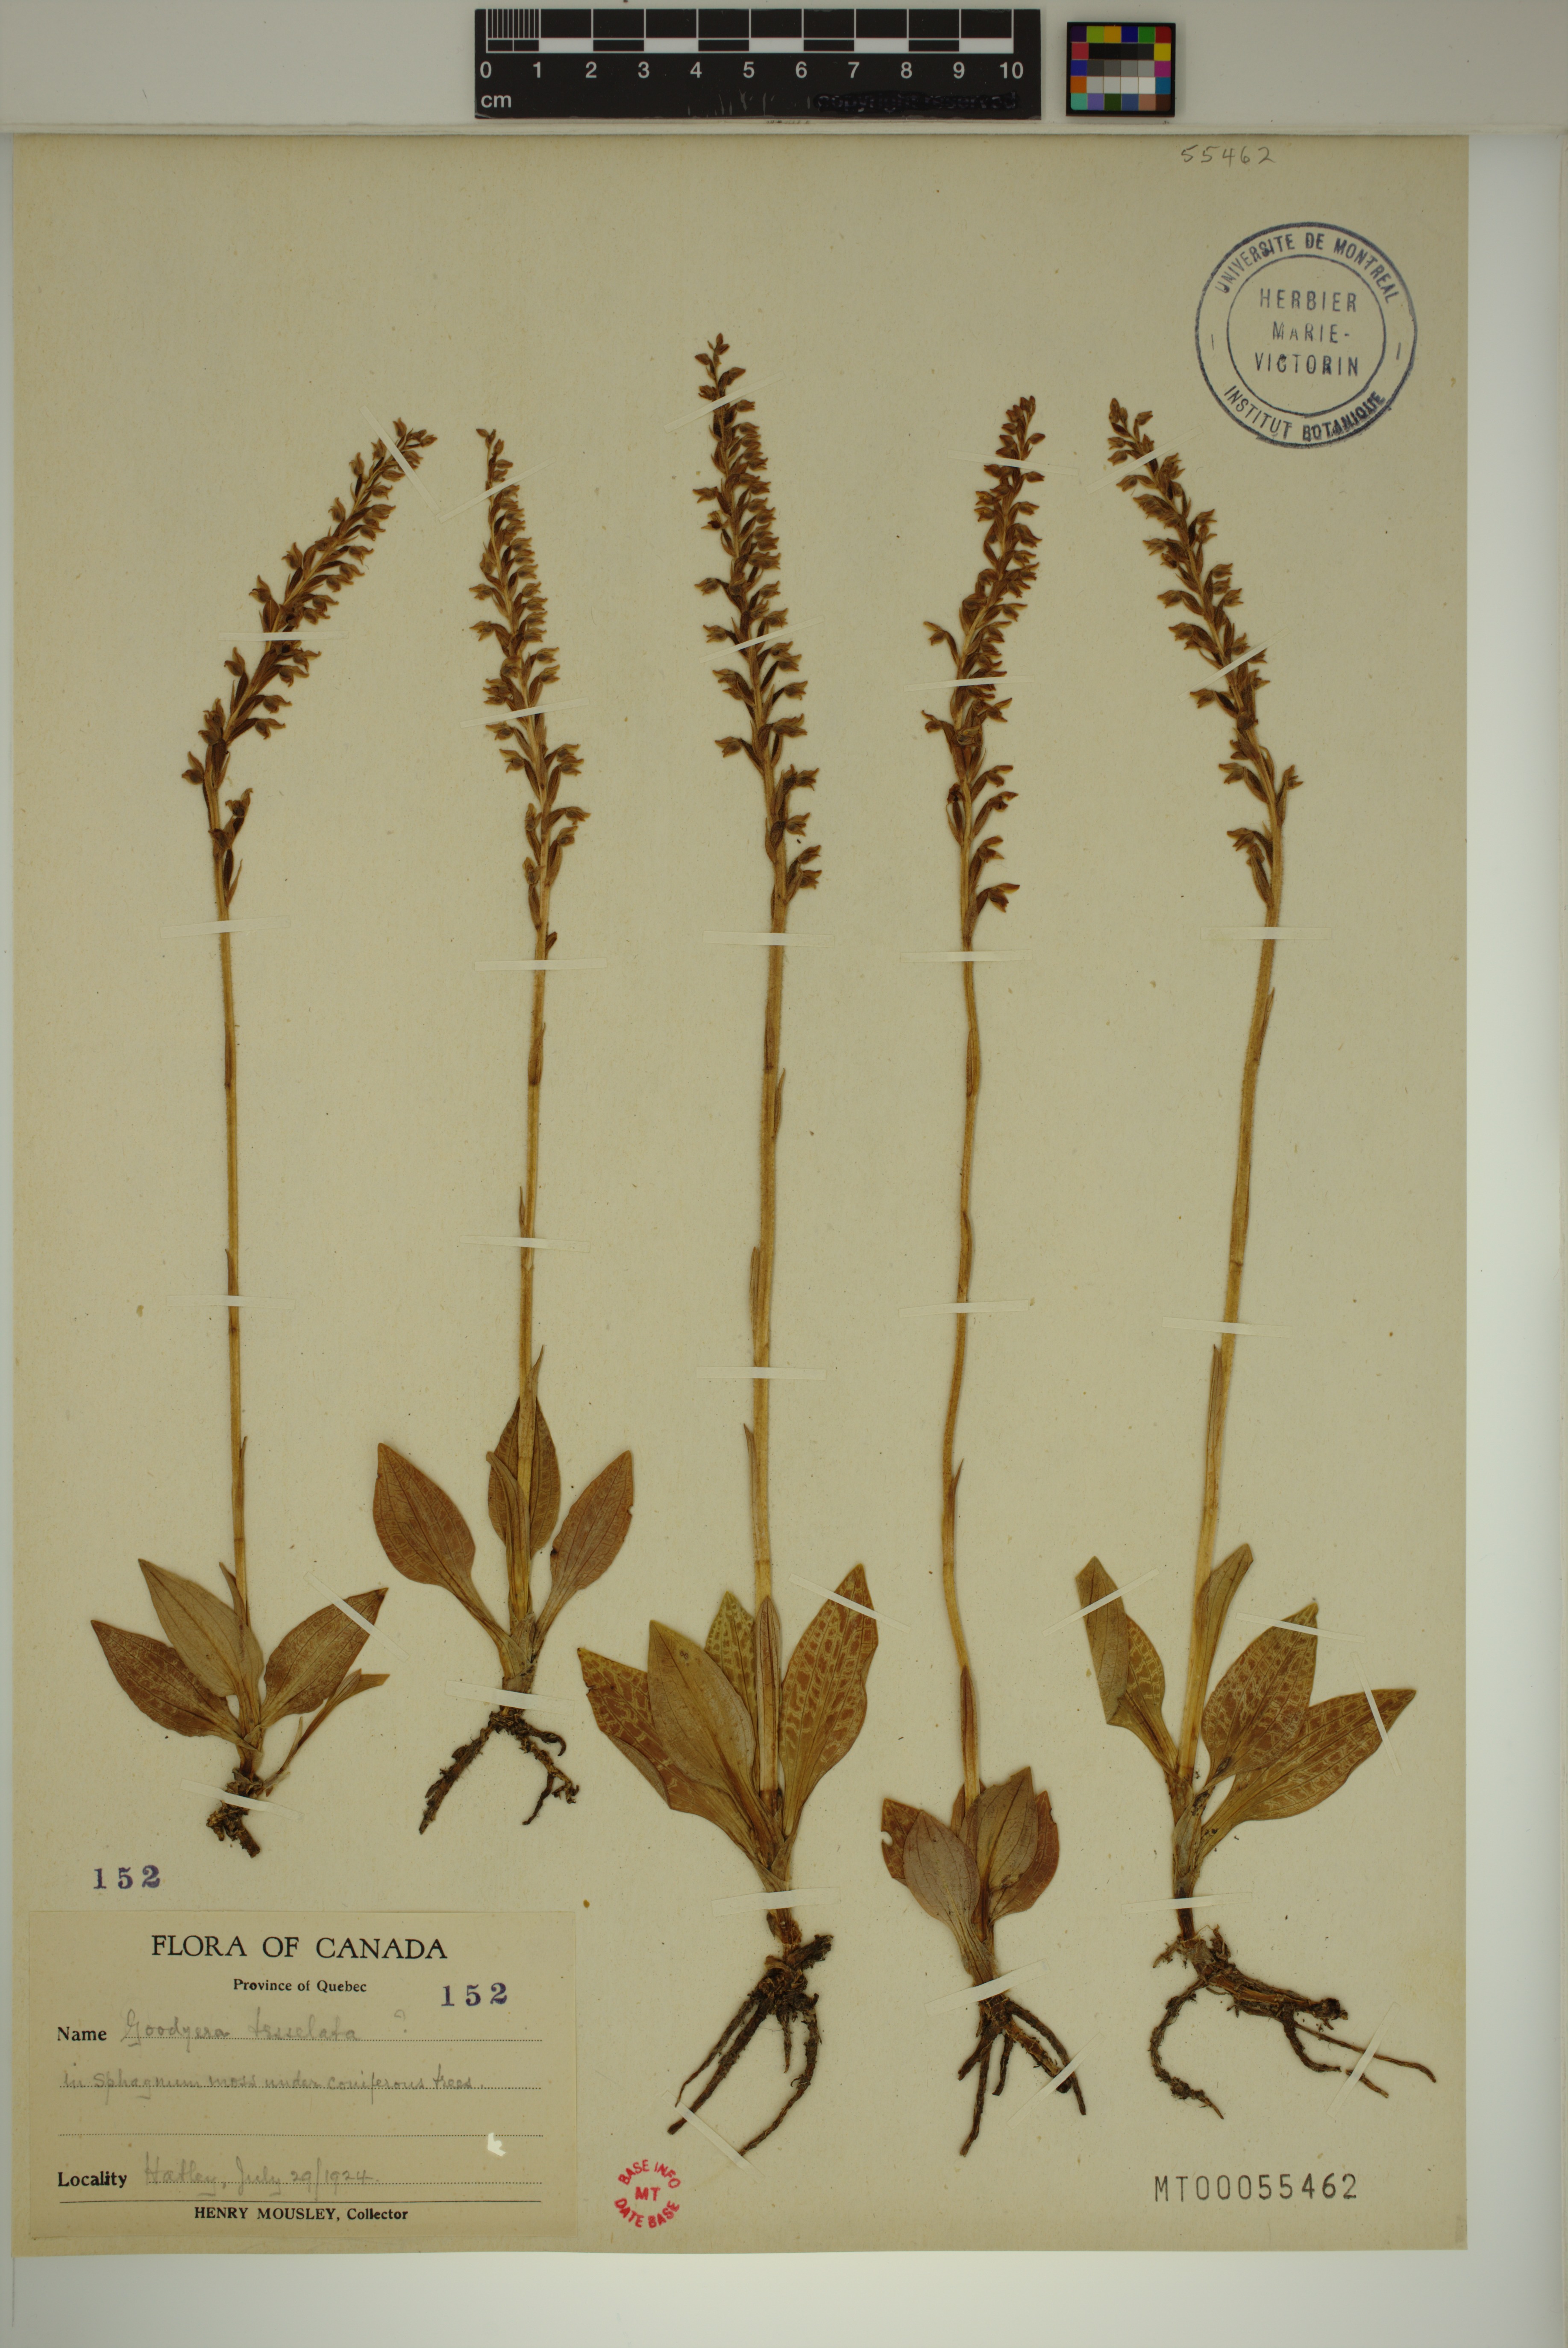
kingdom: Plantae
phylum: Tracheophyta
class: Liliopsida
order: Asparagales
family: Orchidaceae
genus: Goodyera
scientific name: Goodyera tesselata
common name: Checkered rattlesnake-plantain
